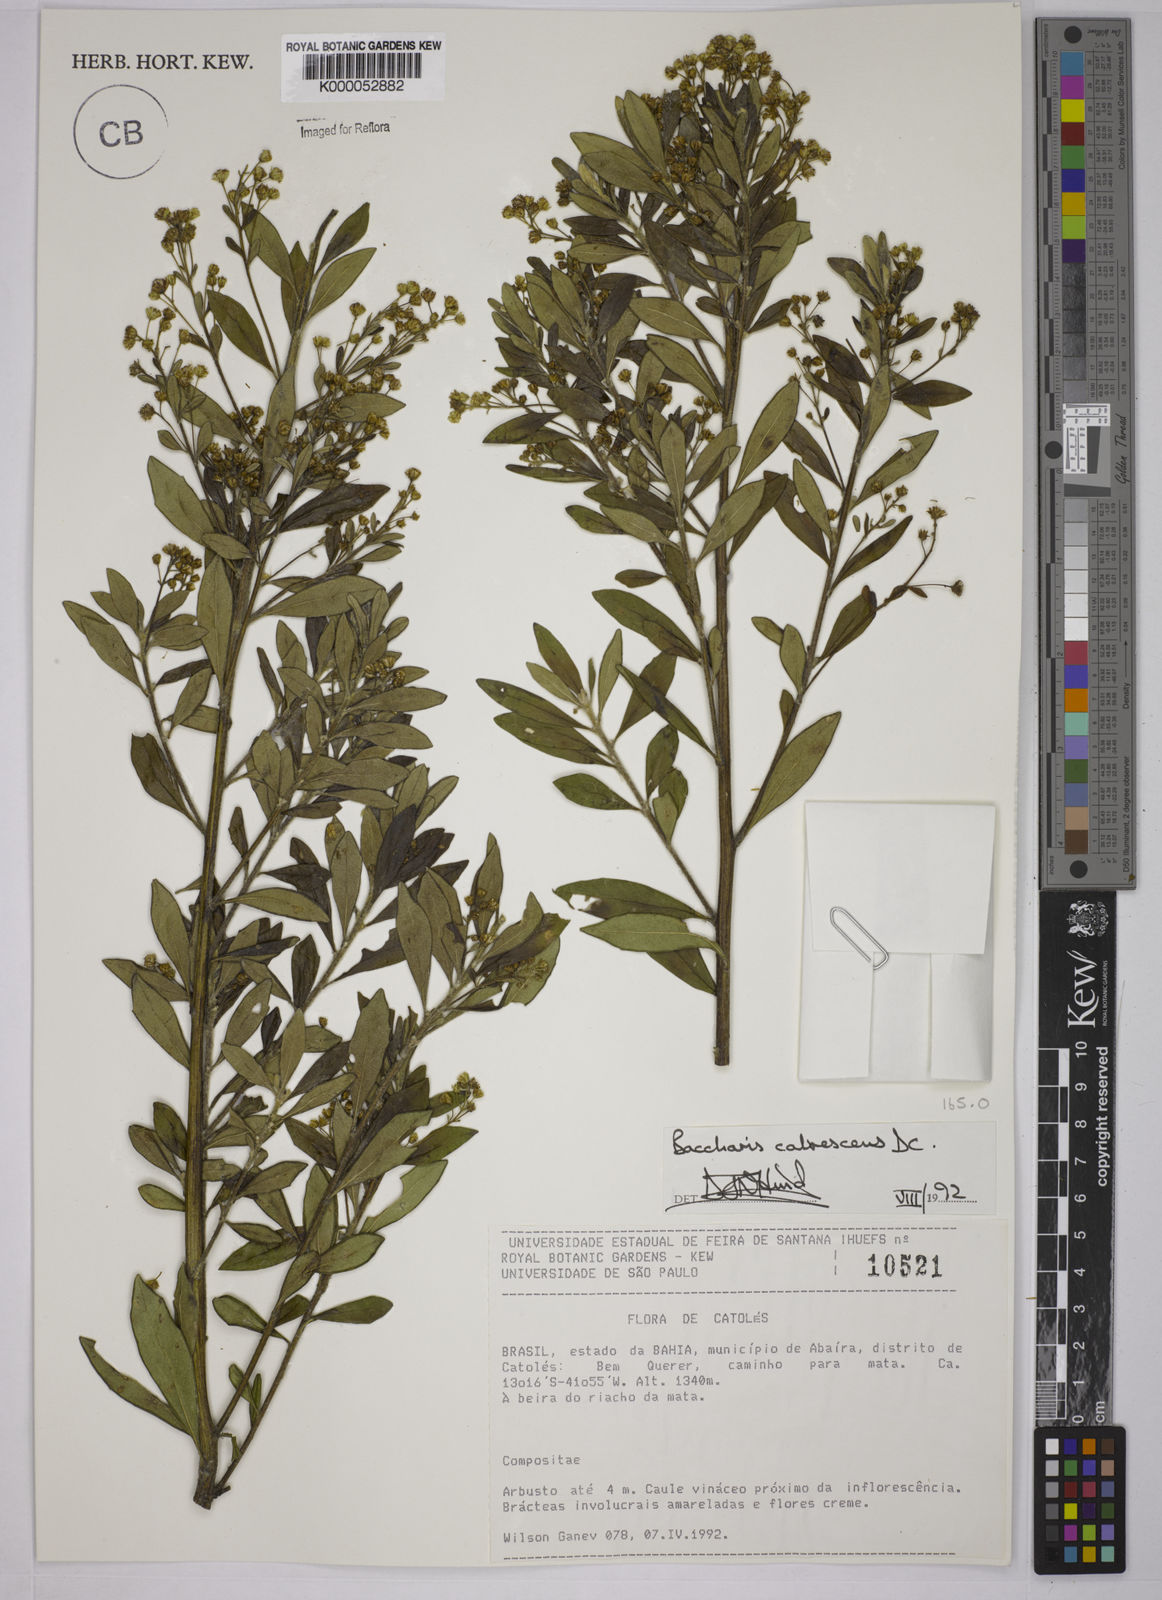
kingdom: Plantae
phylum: Tracheophyta
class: Magnoliopsida
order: Asterales
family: Asteraceae
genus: Baccharis
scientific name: Baccharis calvescens
